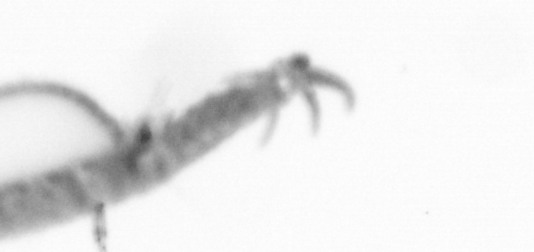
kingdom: Animalia
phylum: Annelida
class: Polychaeta
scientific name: Polychaeta
